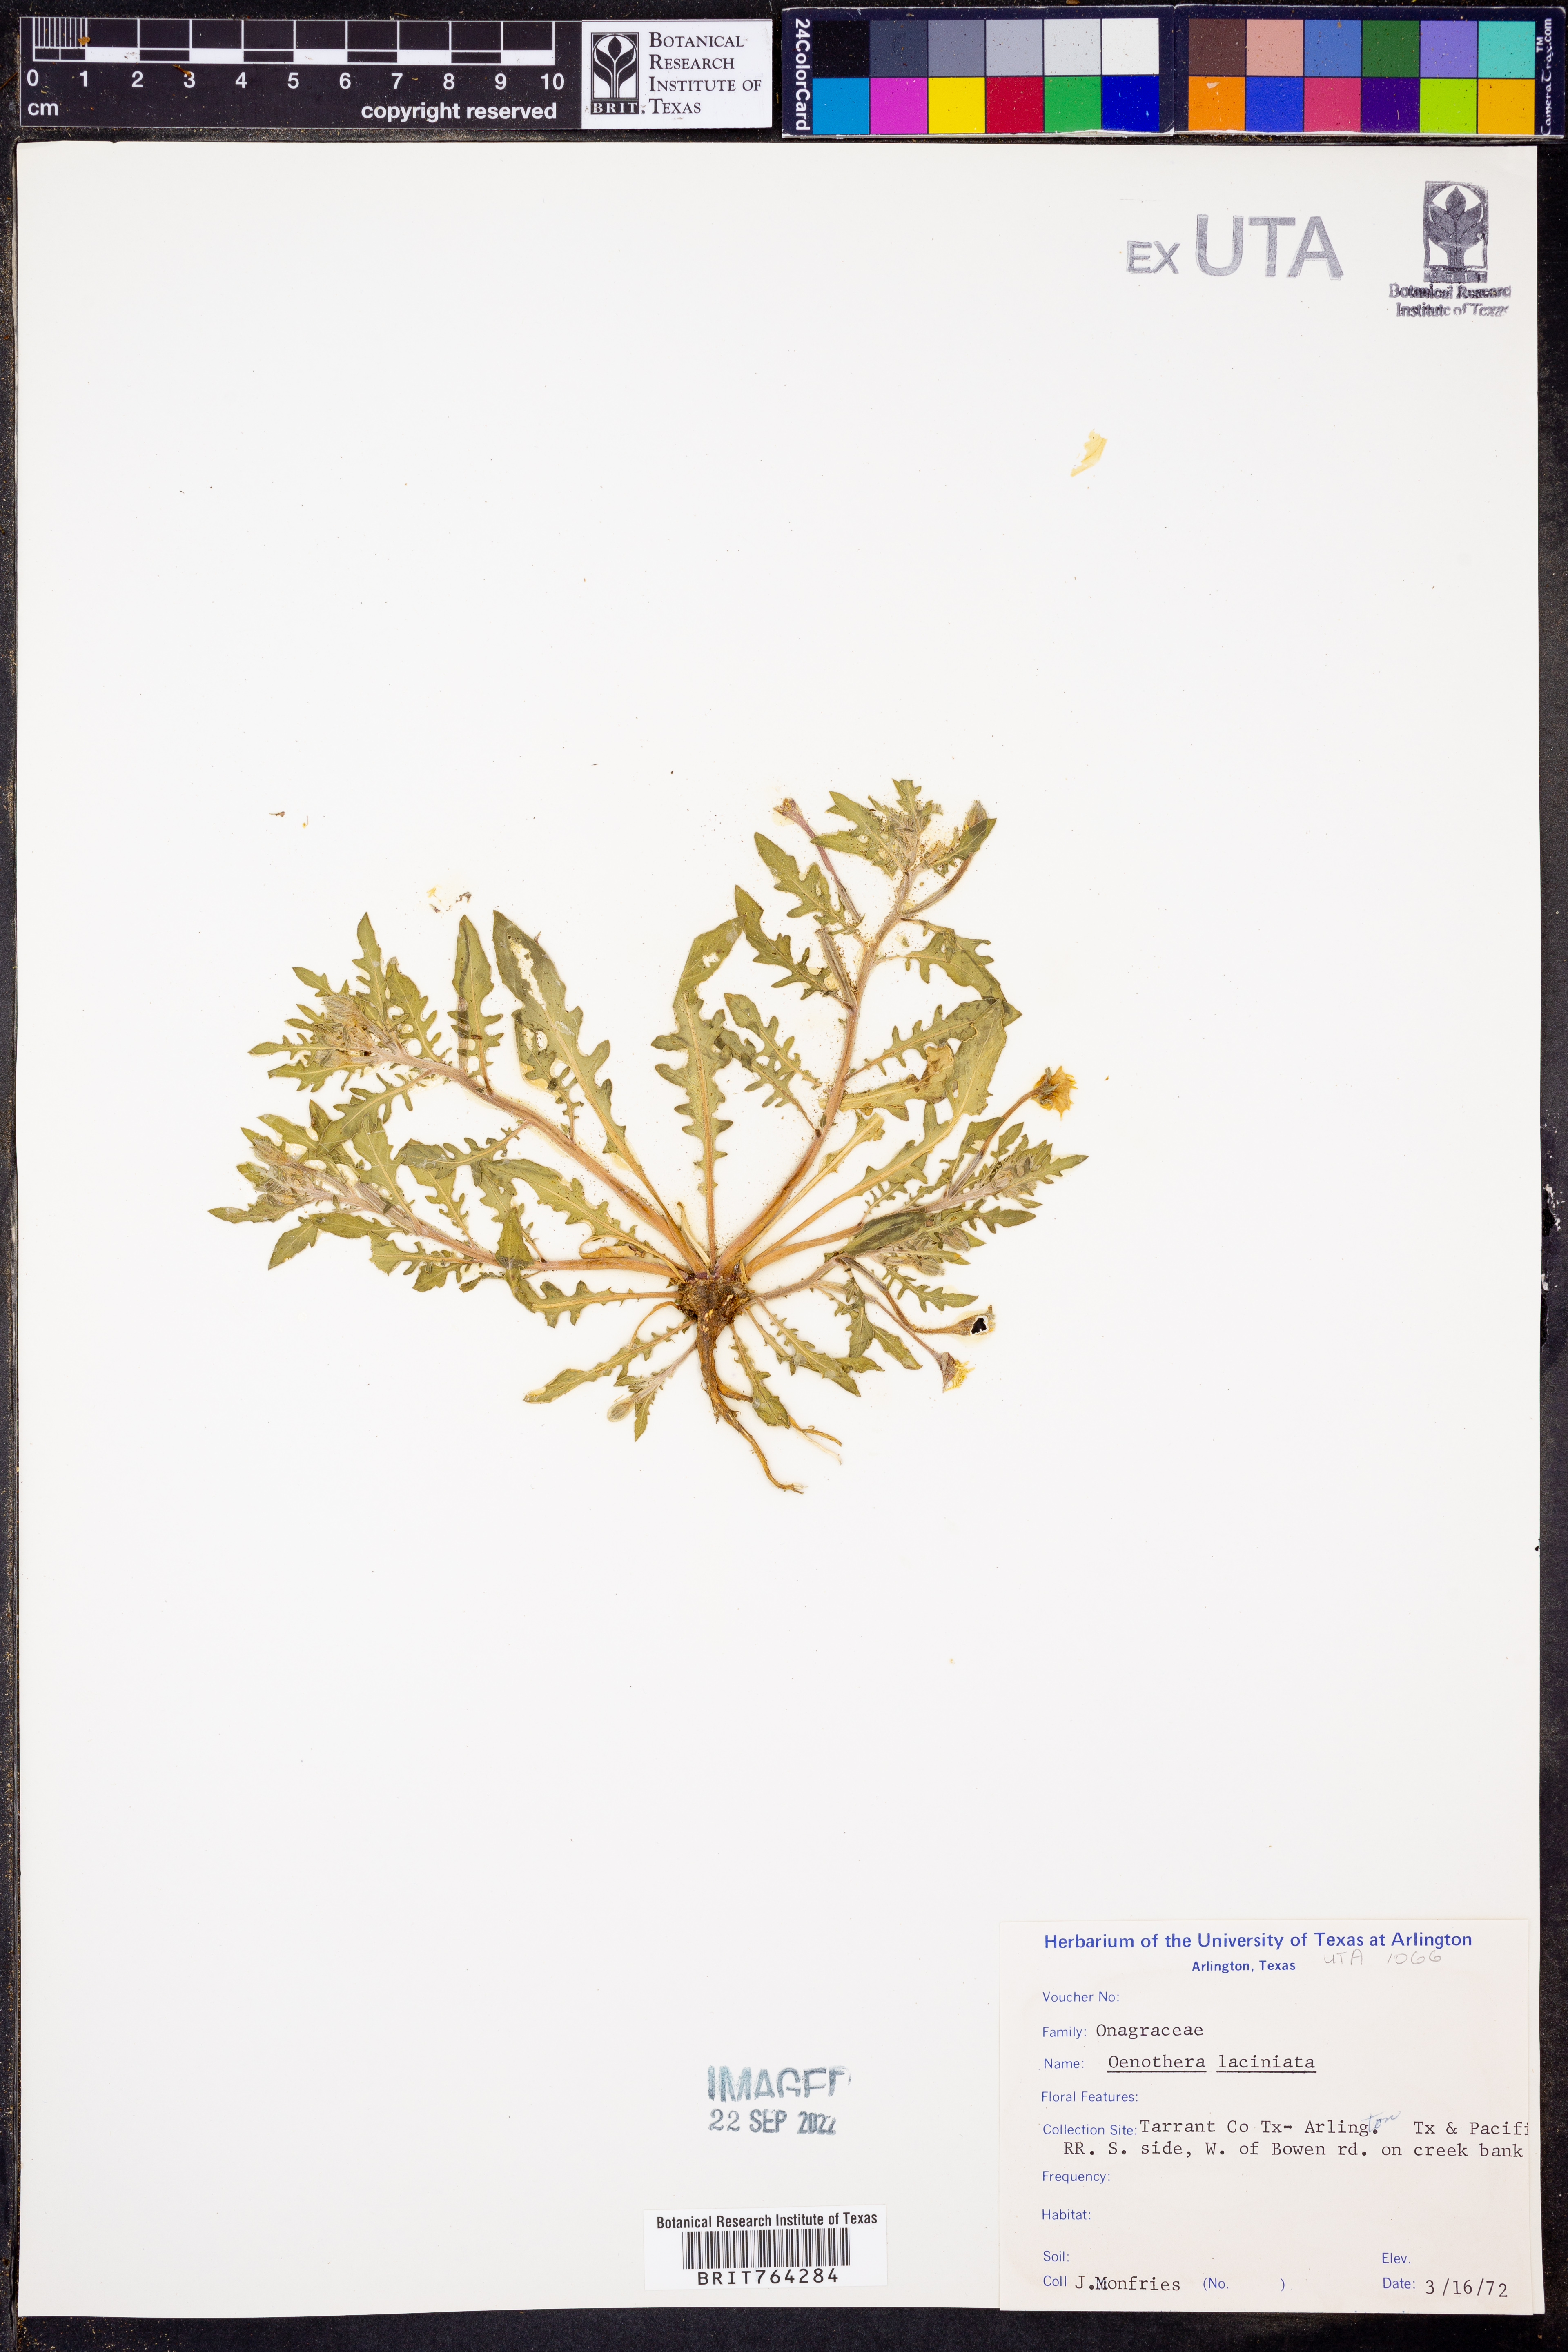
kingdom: Plantae
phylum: Tracheophyta
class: Magnoliopsida
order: Myrtales
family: Onagraceae
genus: Oenothera
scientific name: Oenothera laciniata
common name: Cut-leaved evening-primrose
